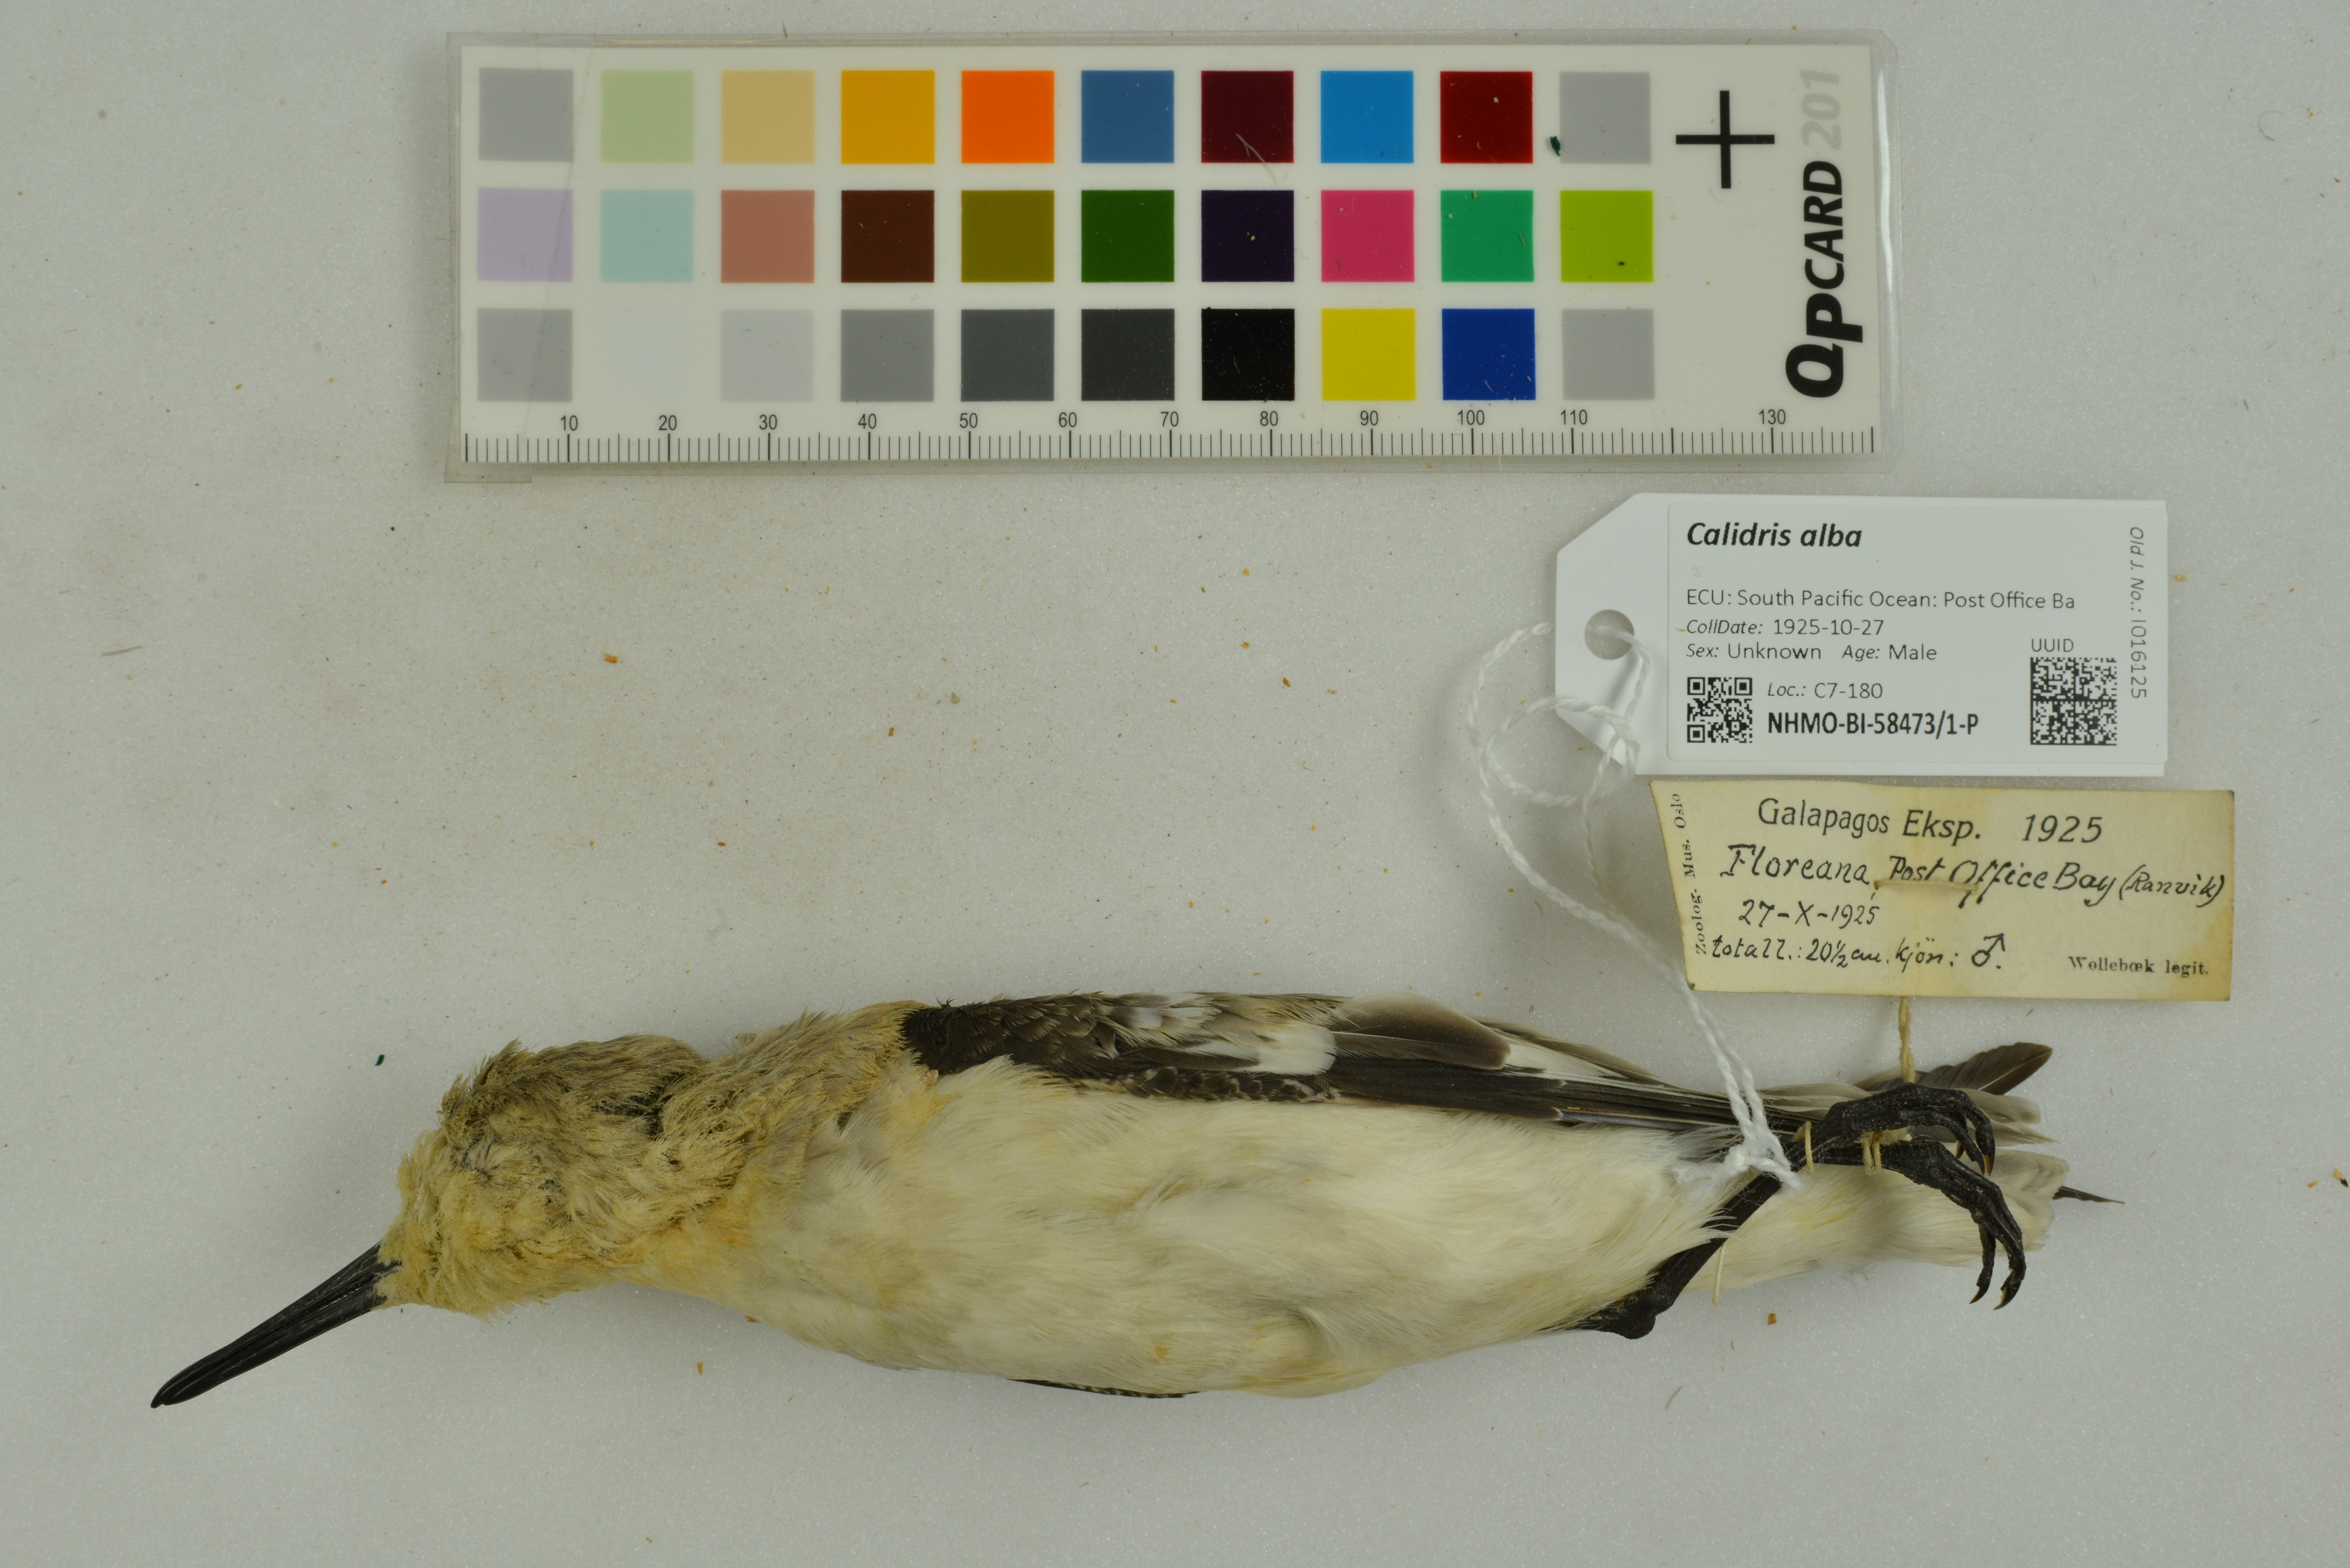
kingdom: Animalia
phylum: Chordata
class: Aves
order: Charadriiformes
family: Scolopacidae
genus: Calidris
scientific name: Calidris alba
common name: Sanderling
